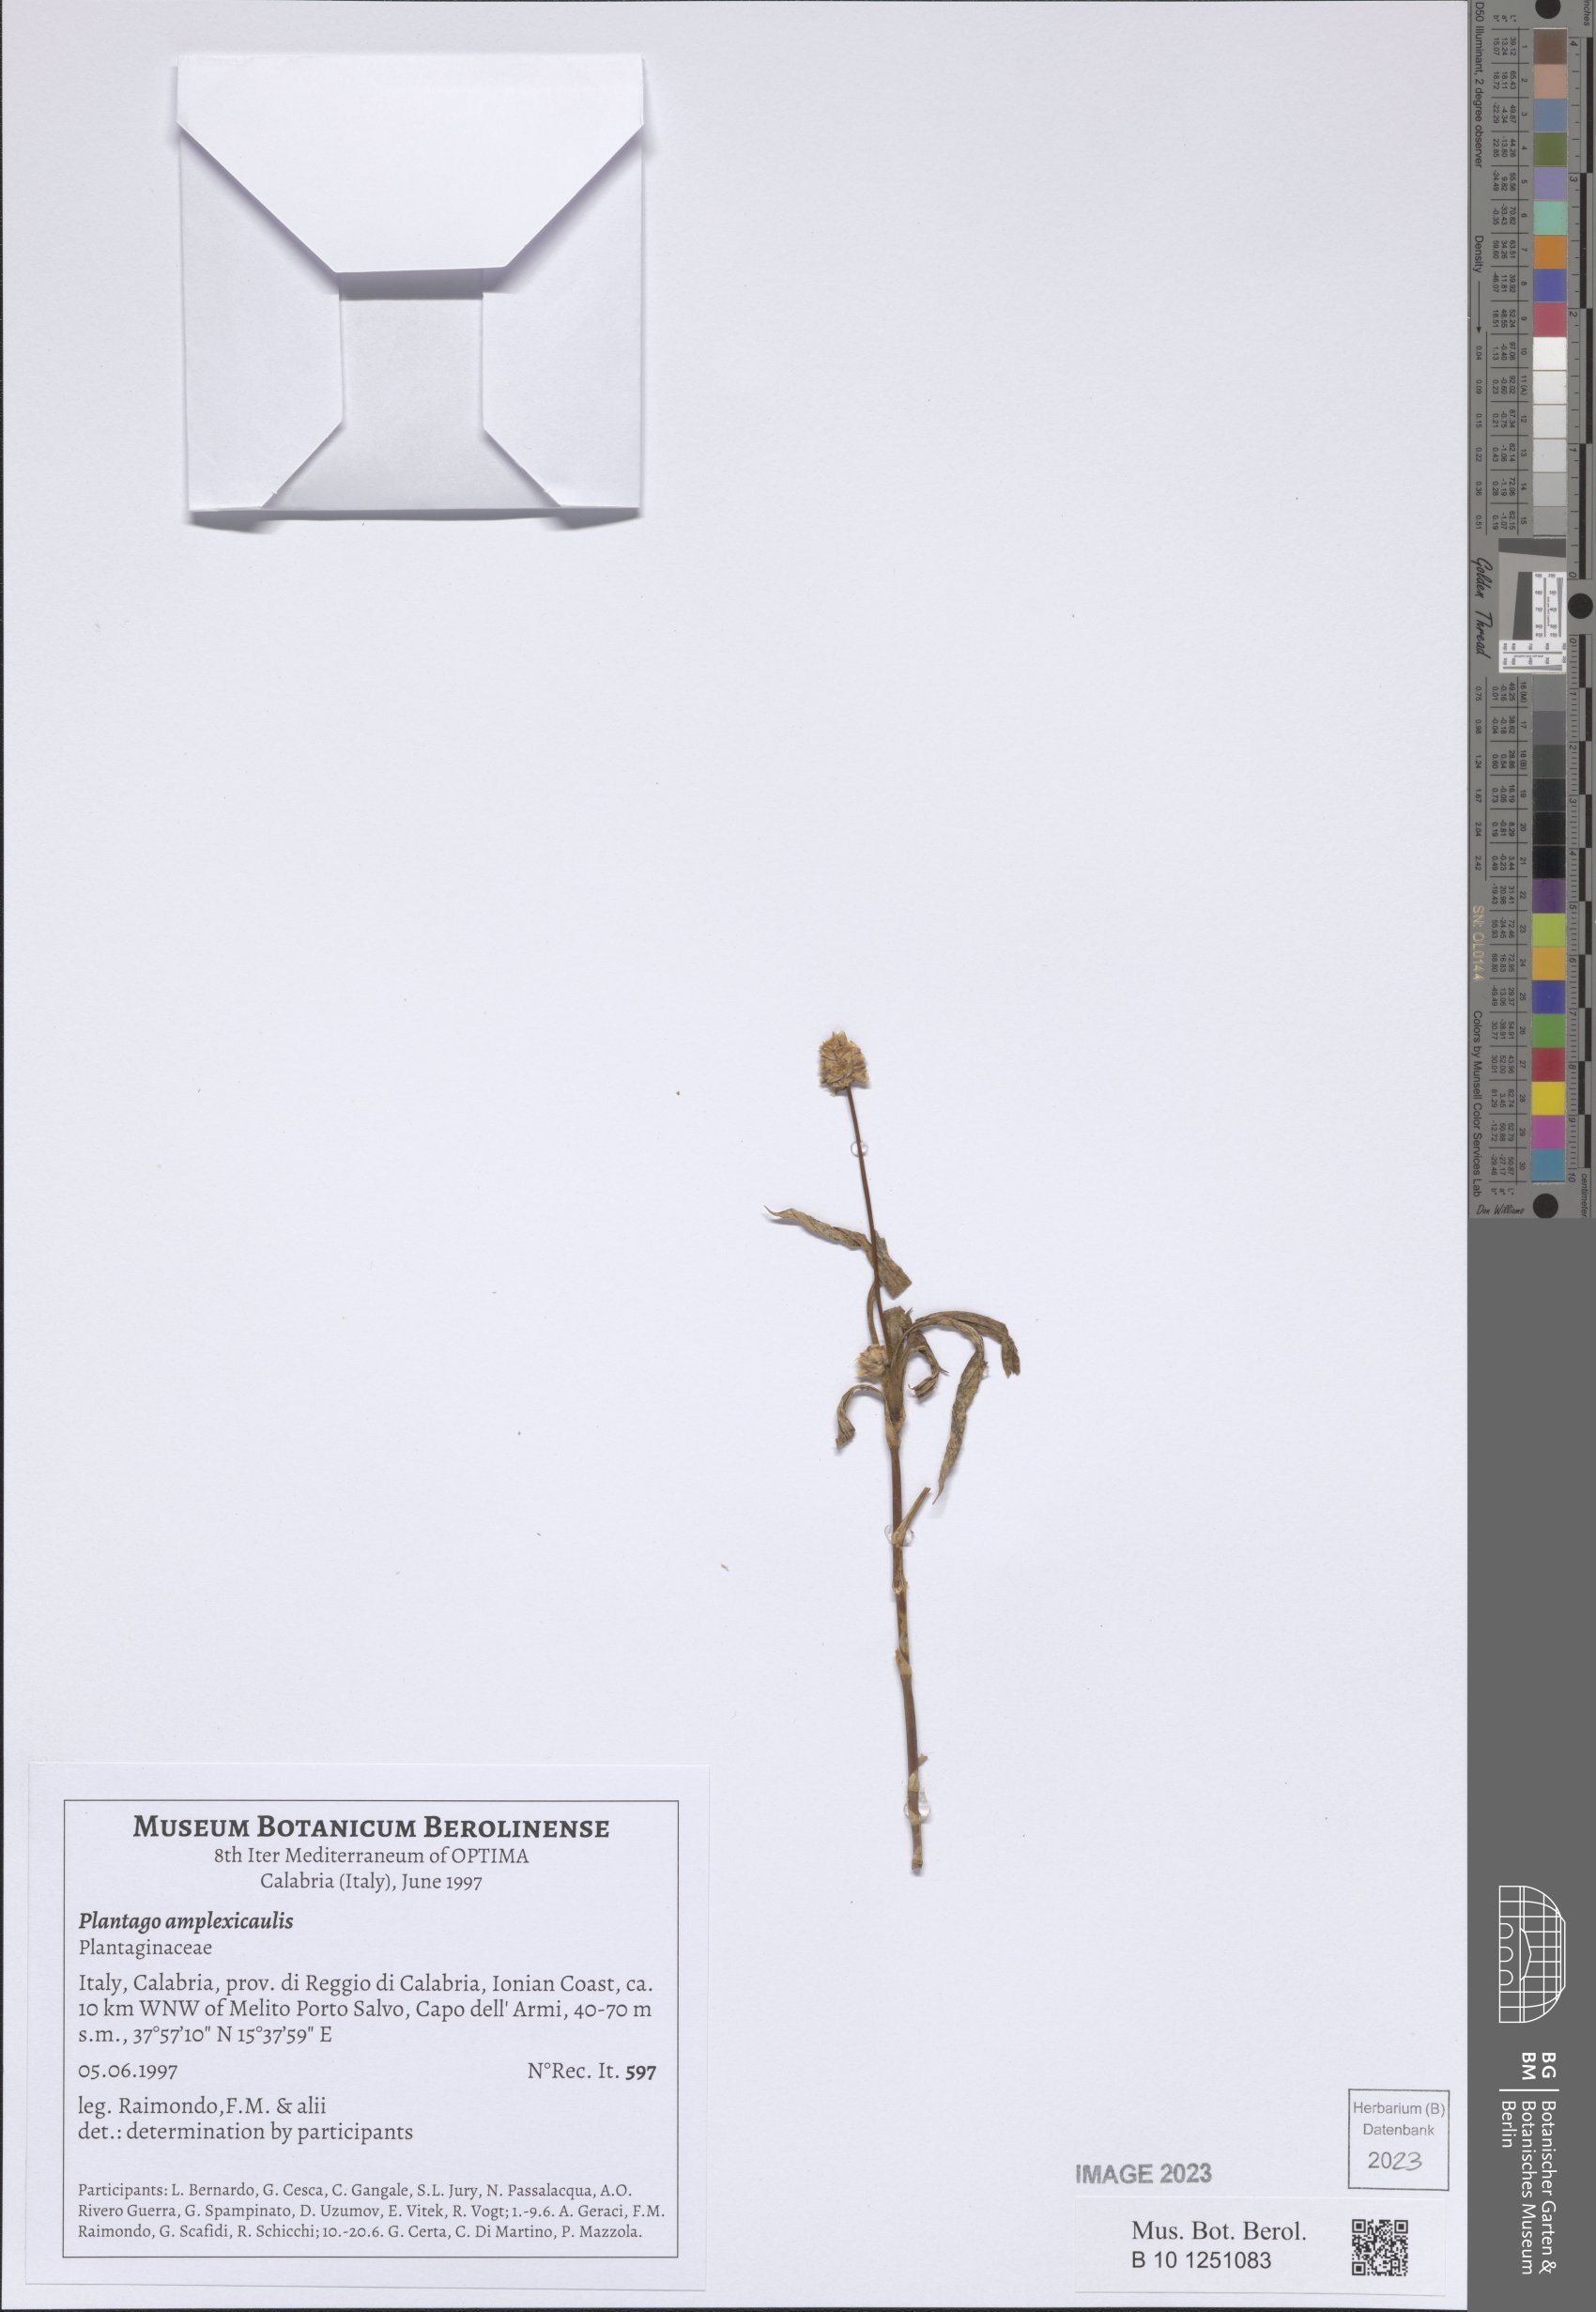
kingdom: Plantae
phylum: Tracheophyta
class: Magnoliopsida
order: Lamiales
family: Plantaginaceae
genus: Plantago
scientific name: Plantago amplexicaulis
